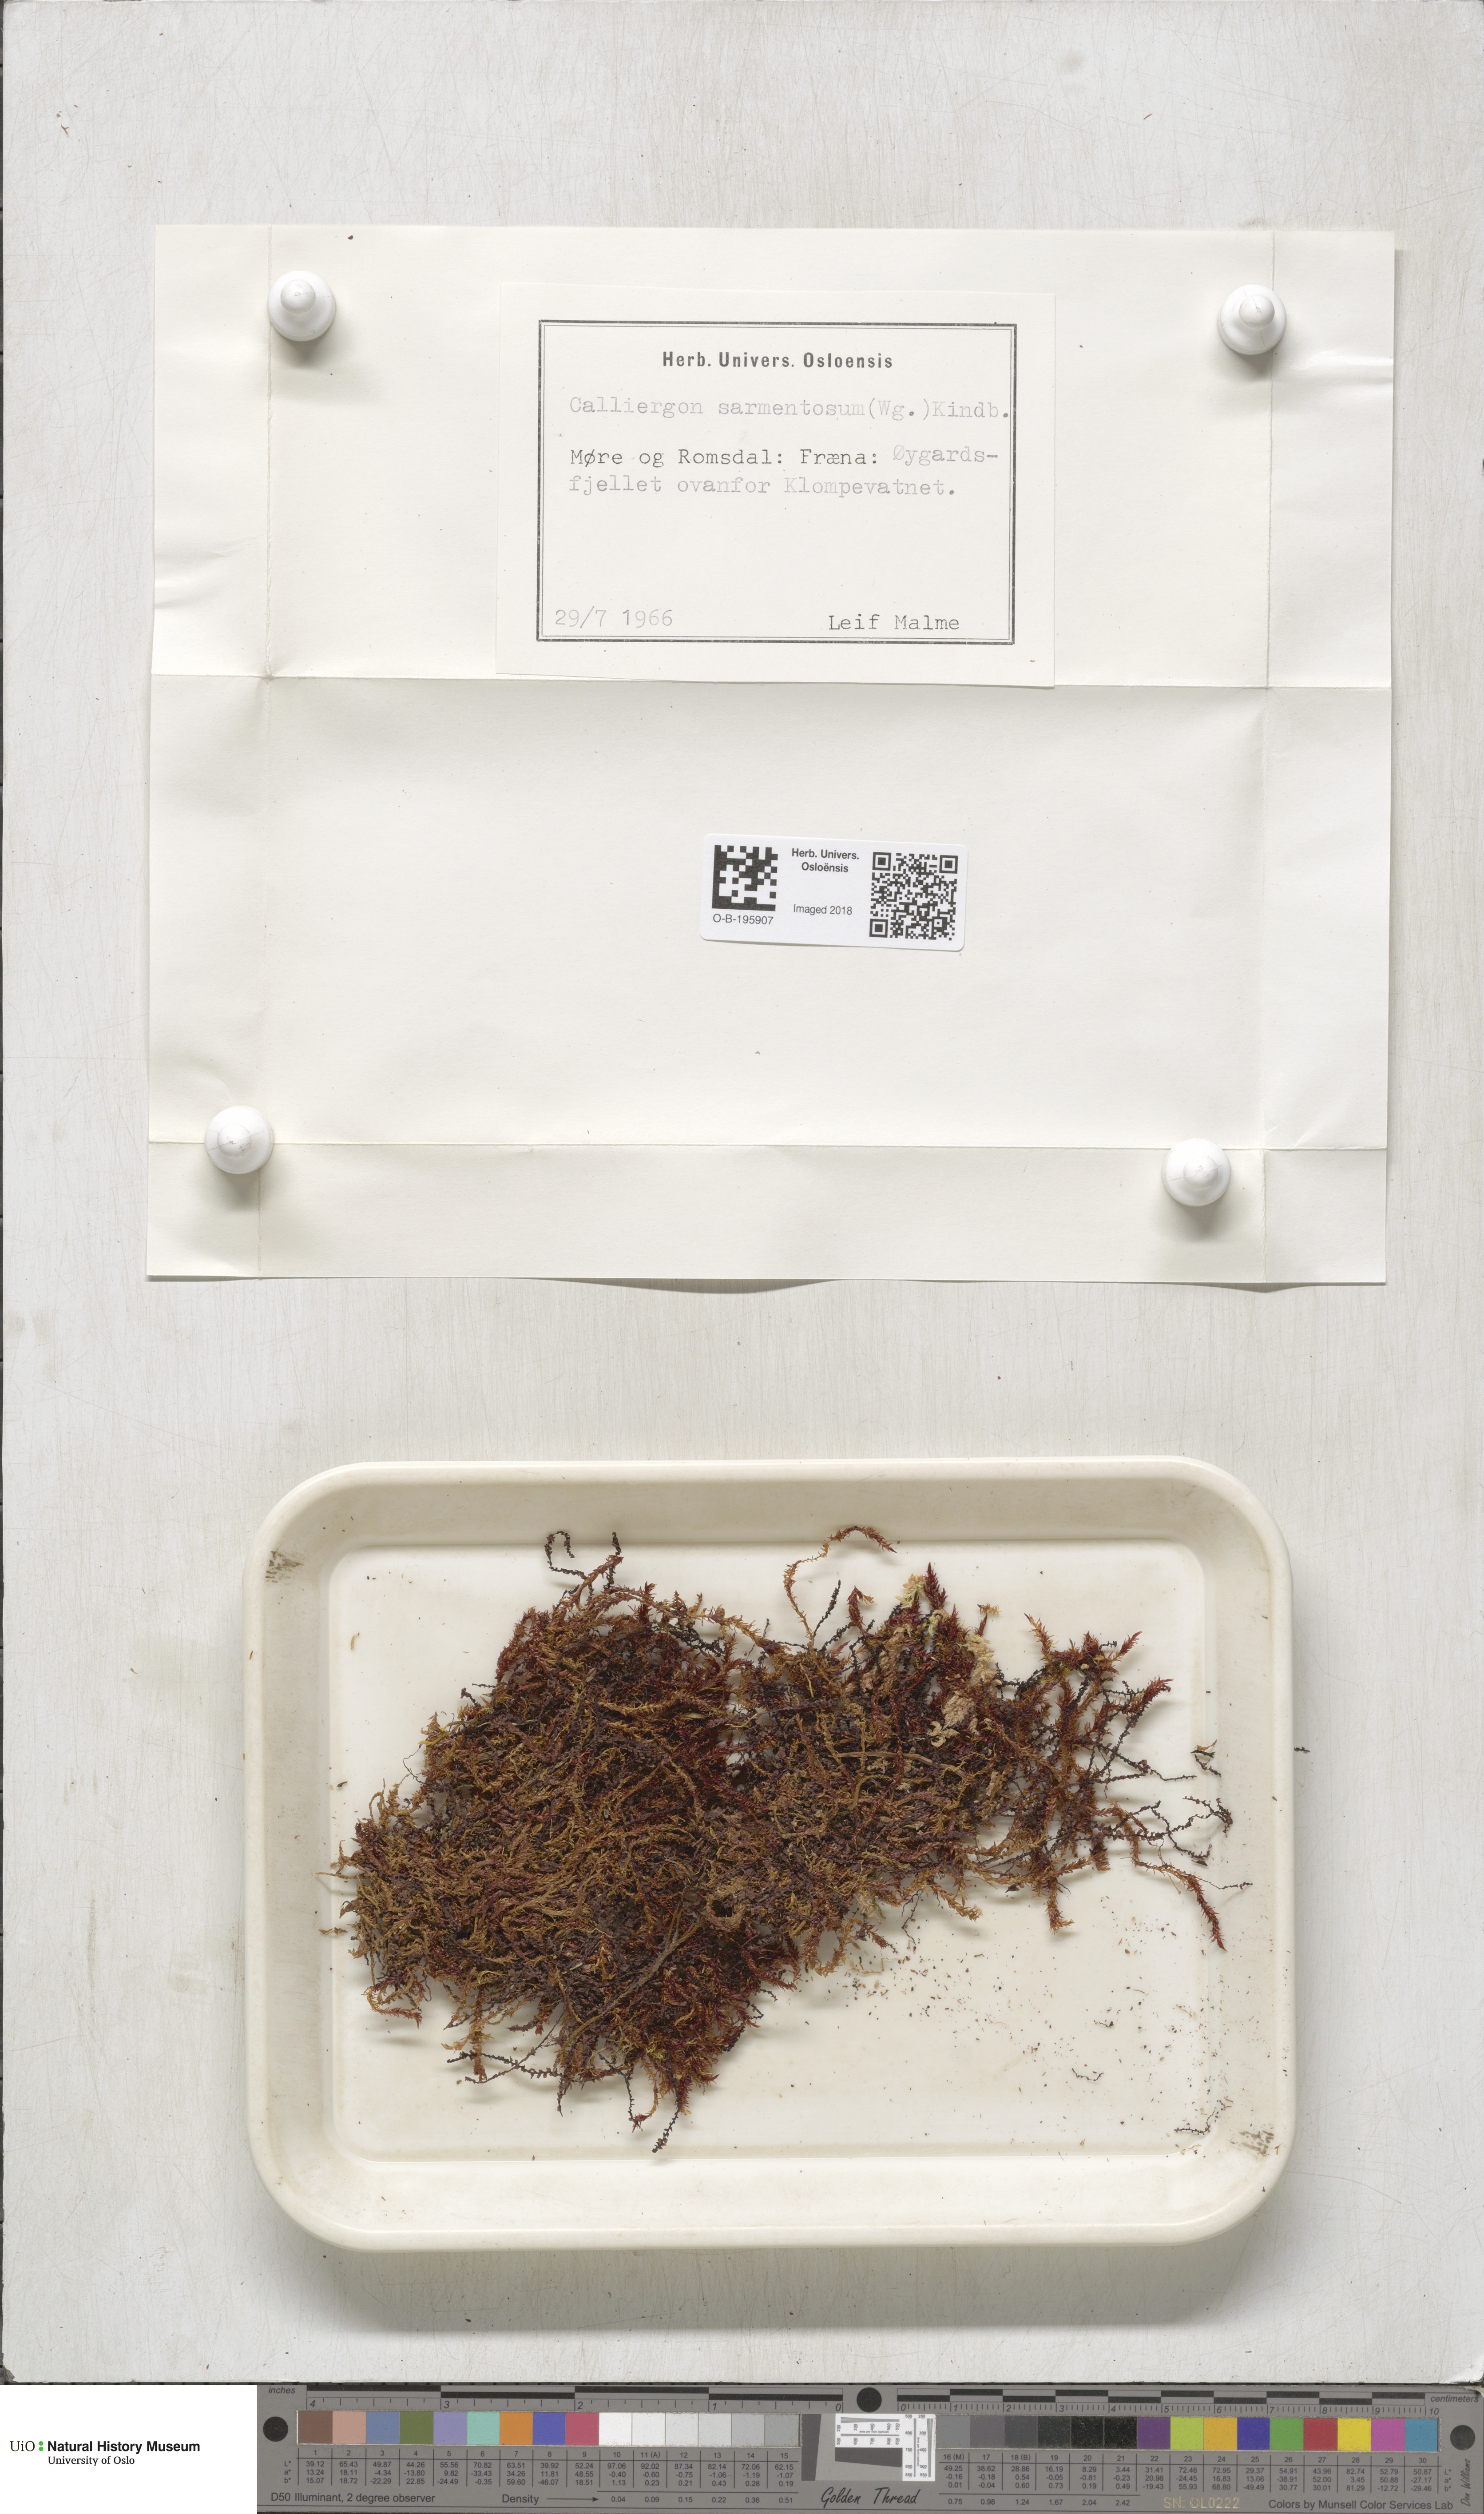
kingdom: Plantae
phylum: Bryophyta
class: Bryopsida
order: Hypnales
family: Calliergonaceae
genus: Sarmentypnum
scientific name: Sarmentypnum sarmentosum
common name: Twiggy spoon moss
